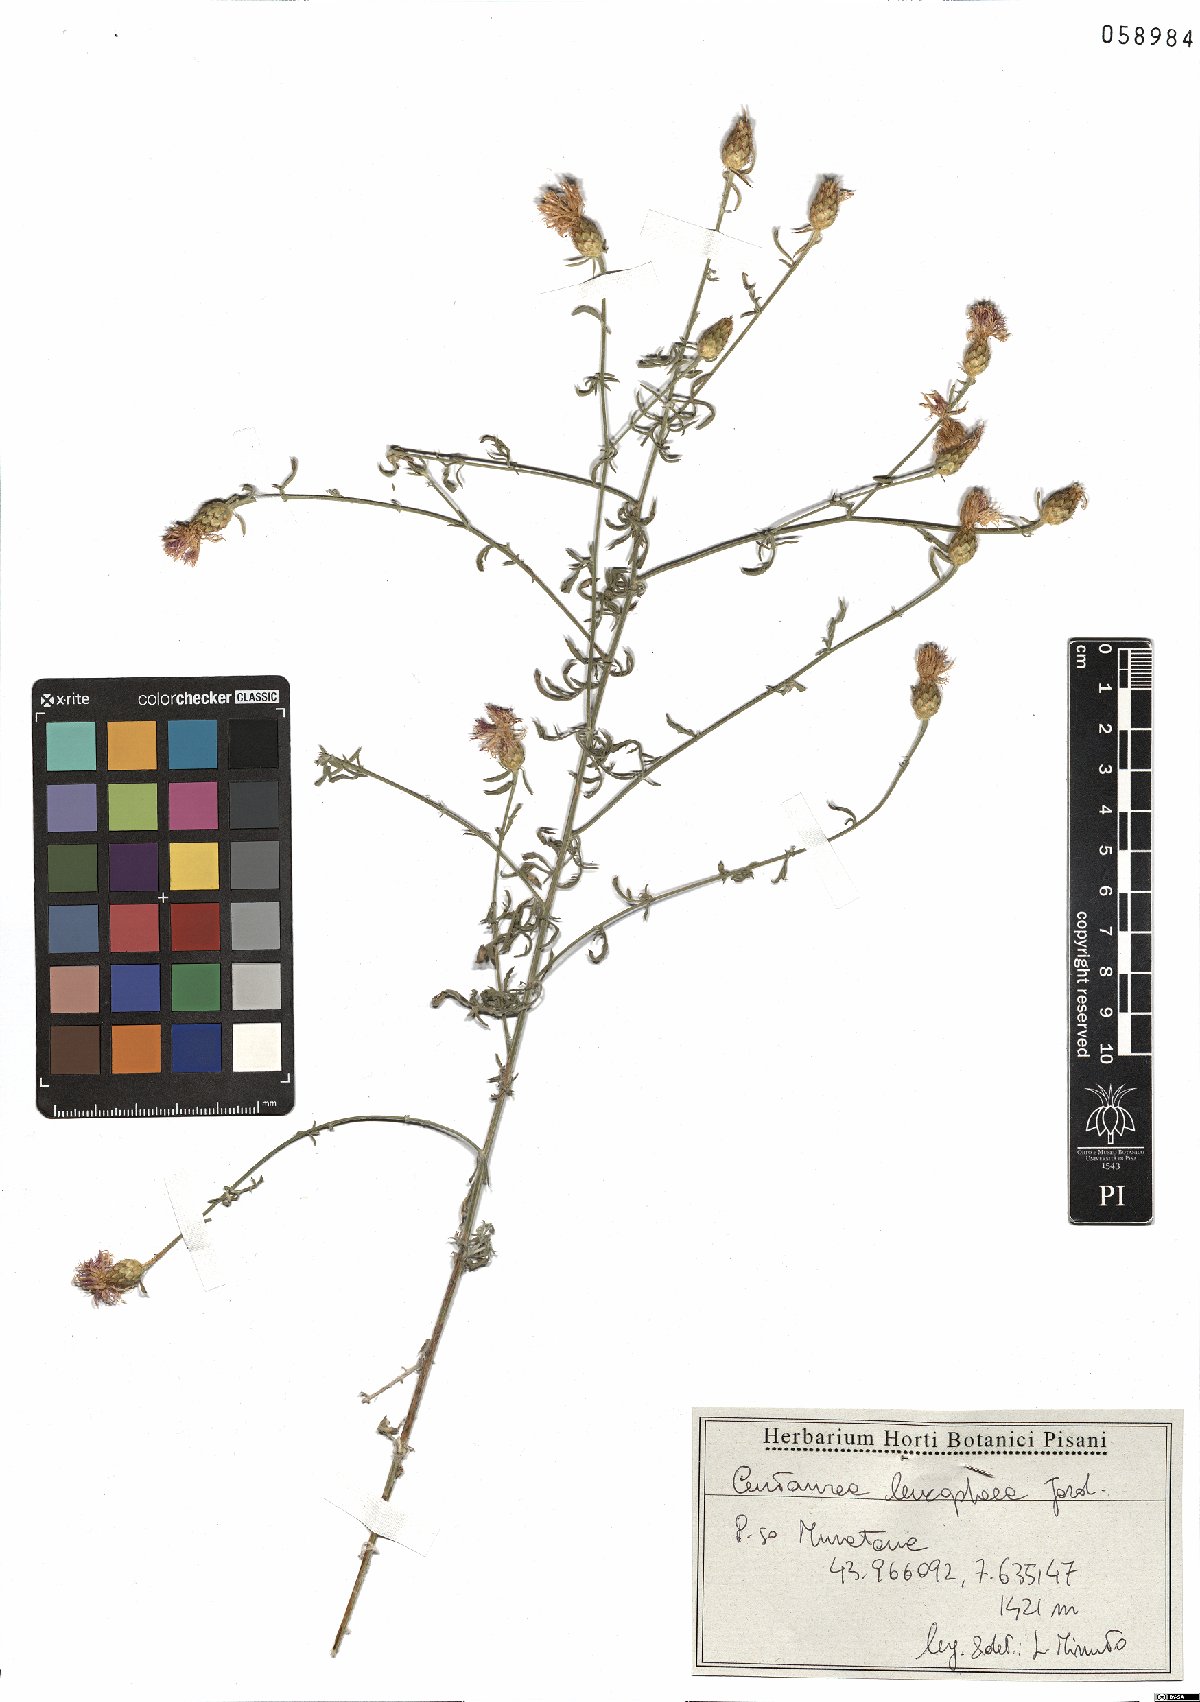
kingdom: Plantae
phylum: Tracheophyta
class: Magnoliopsida
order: Asterales
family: Asteraceae
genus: Centaurea
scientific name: Centaurea leucophaea
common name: Whitish-leaved knapweed
